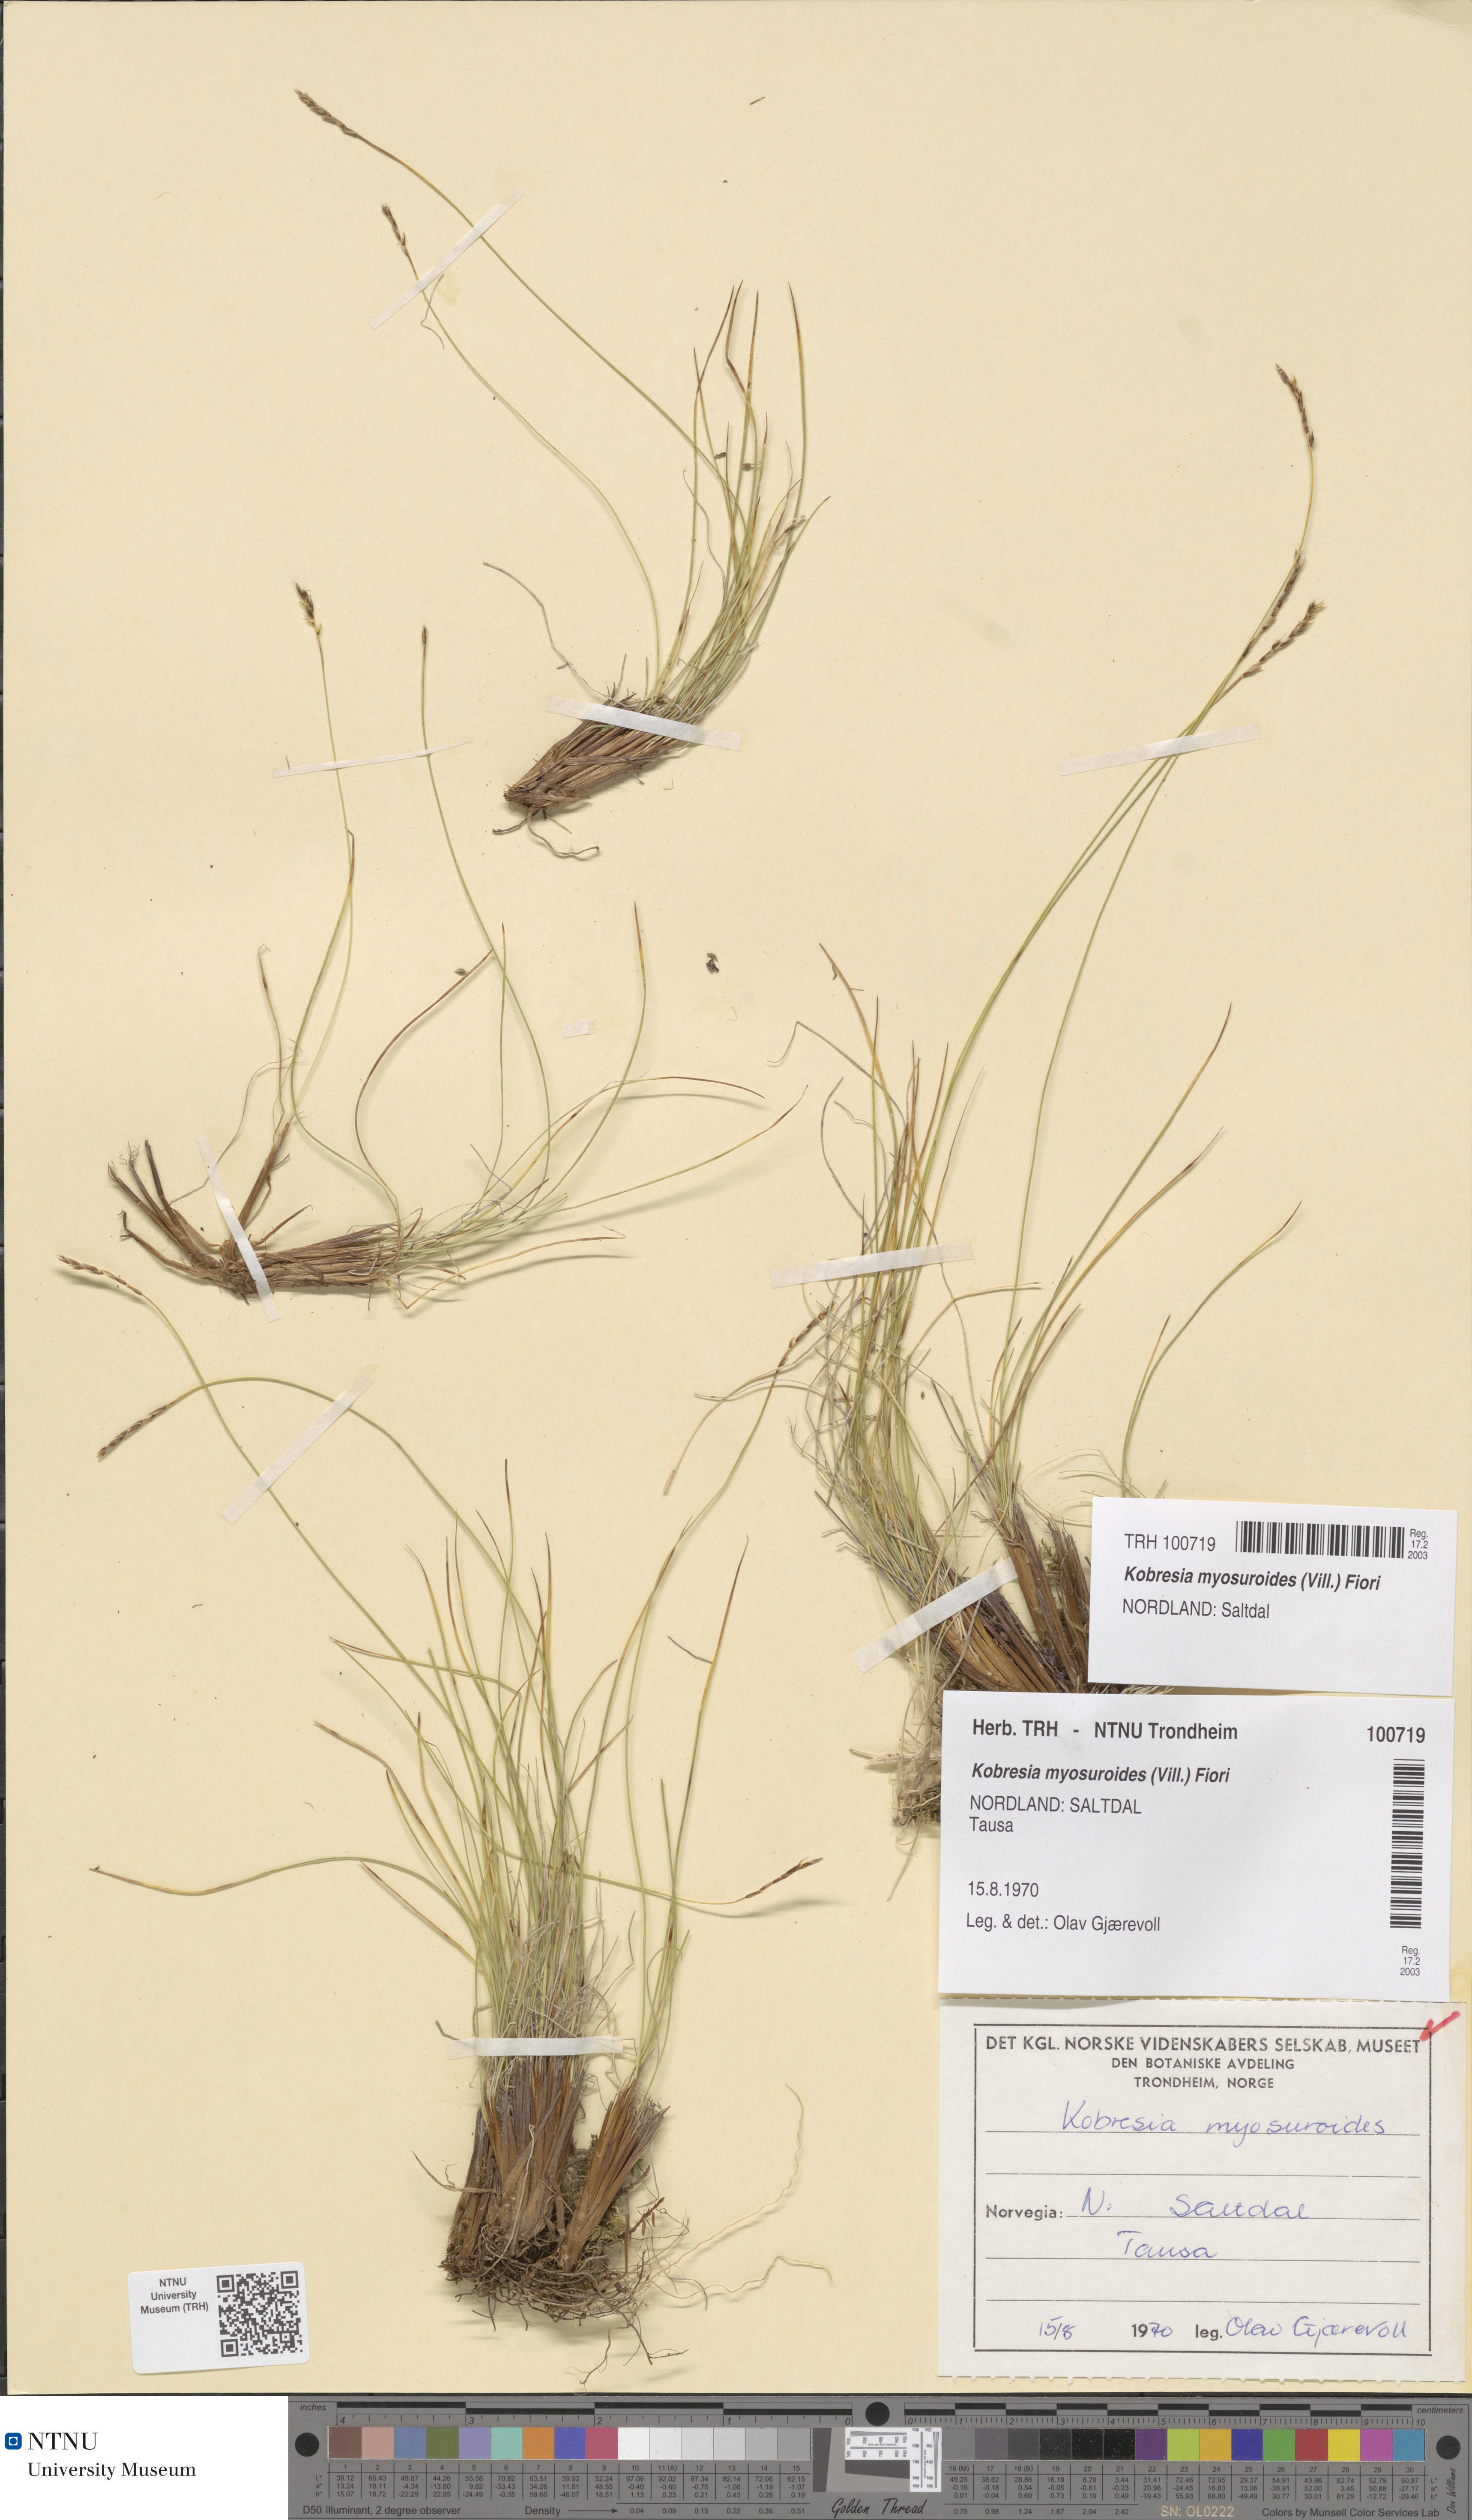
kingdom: Plantae
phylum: Tracheophyta
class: Liliopsida
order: Poales
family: Cyperaceae
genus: Carex
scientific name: Carex myosuroides
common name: Bellard's bog sedge
